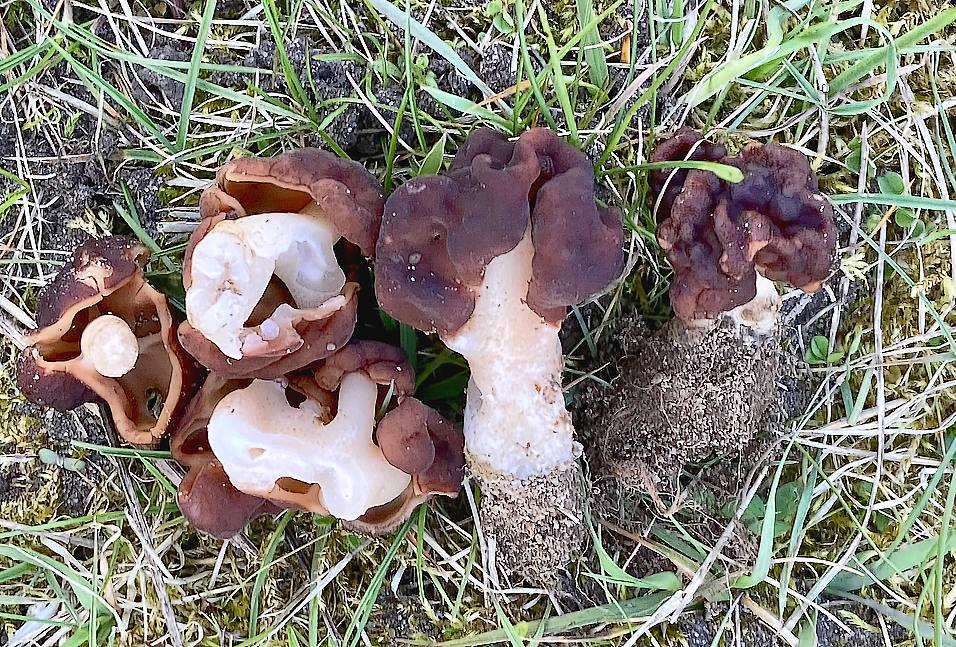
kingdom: Fungi
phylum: Ascomycota
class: Pezizomycetes
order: Pezizales
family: Discinaceae
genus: Gyromitra
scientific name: Gyromitra esculenta
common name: ægte stenmorkel
